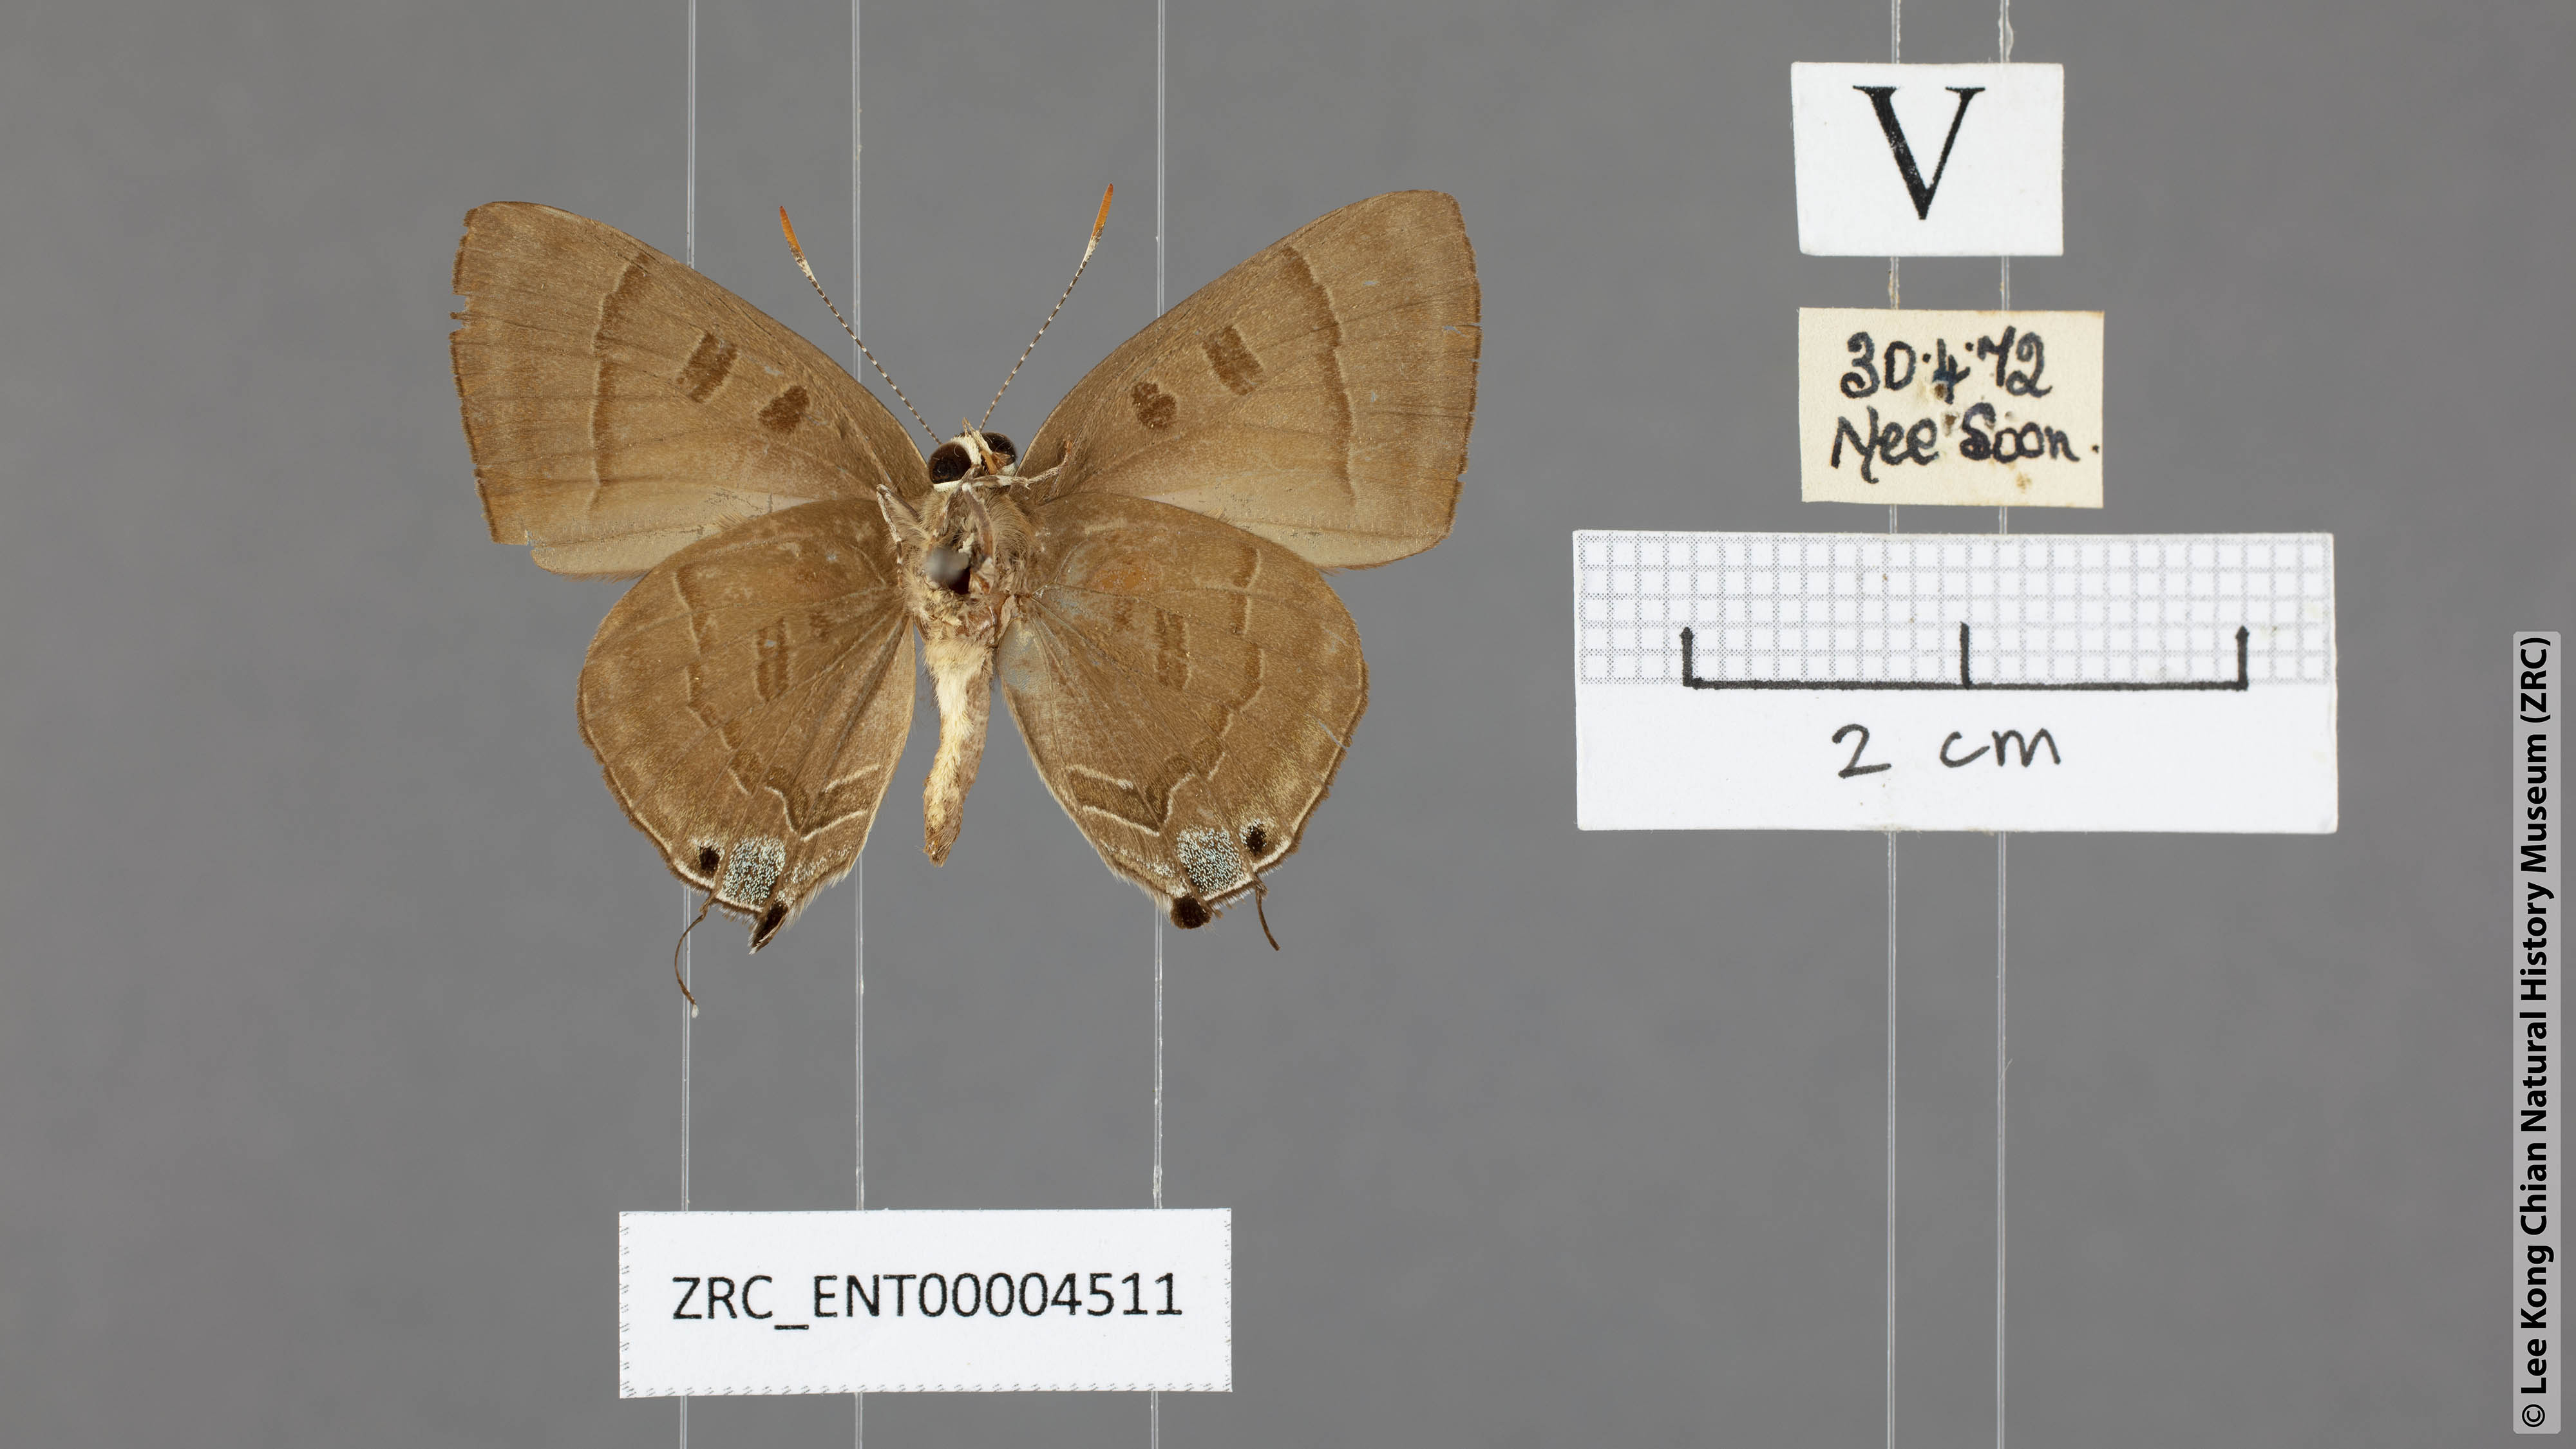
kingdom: Animalia
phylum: Arthropoda
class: Insecta
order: Lepidoptera
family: Lycaenidae
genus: Rapala
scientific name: Rapala pheretima
